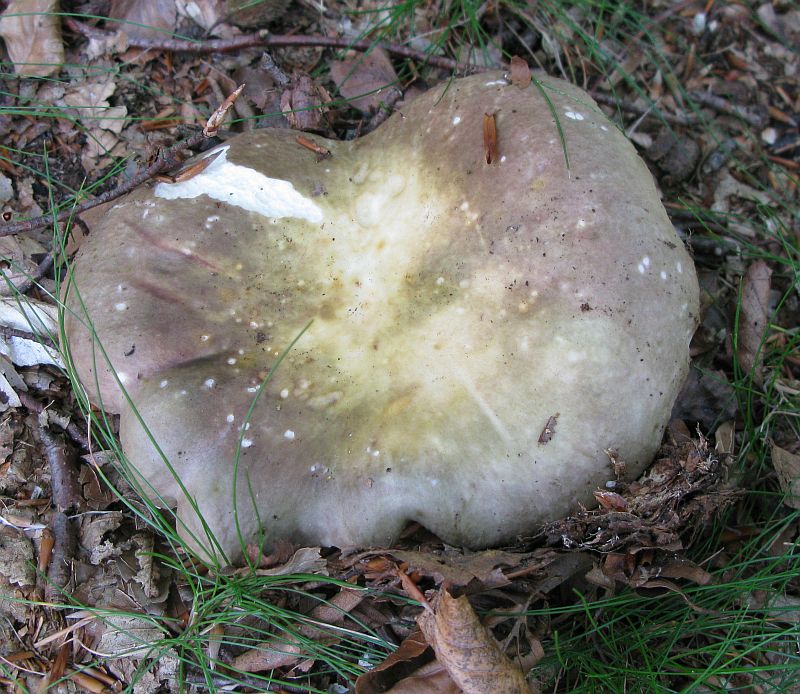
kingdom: Fungi
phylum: Basidiomycota
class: Agaricomycetes
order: Russulales
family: Russulaceae
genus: Russula
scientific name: Russula cyanoxantha
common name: broget skørhat
